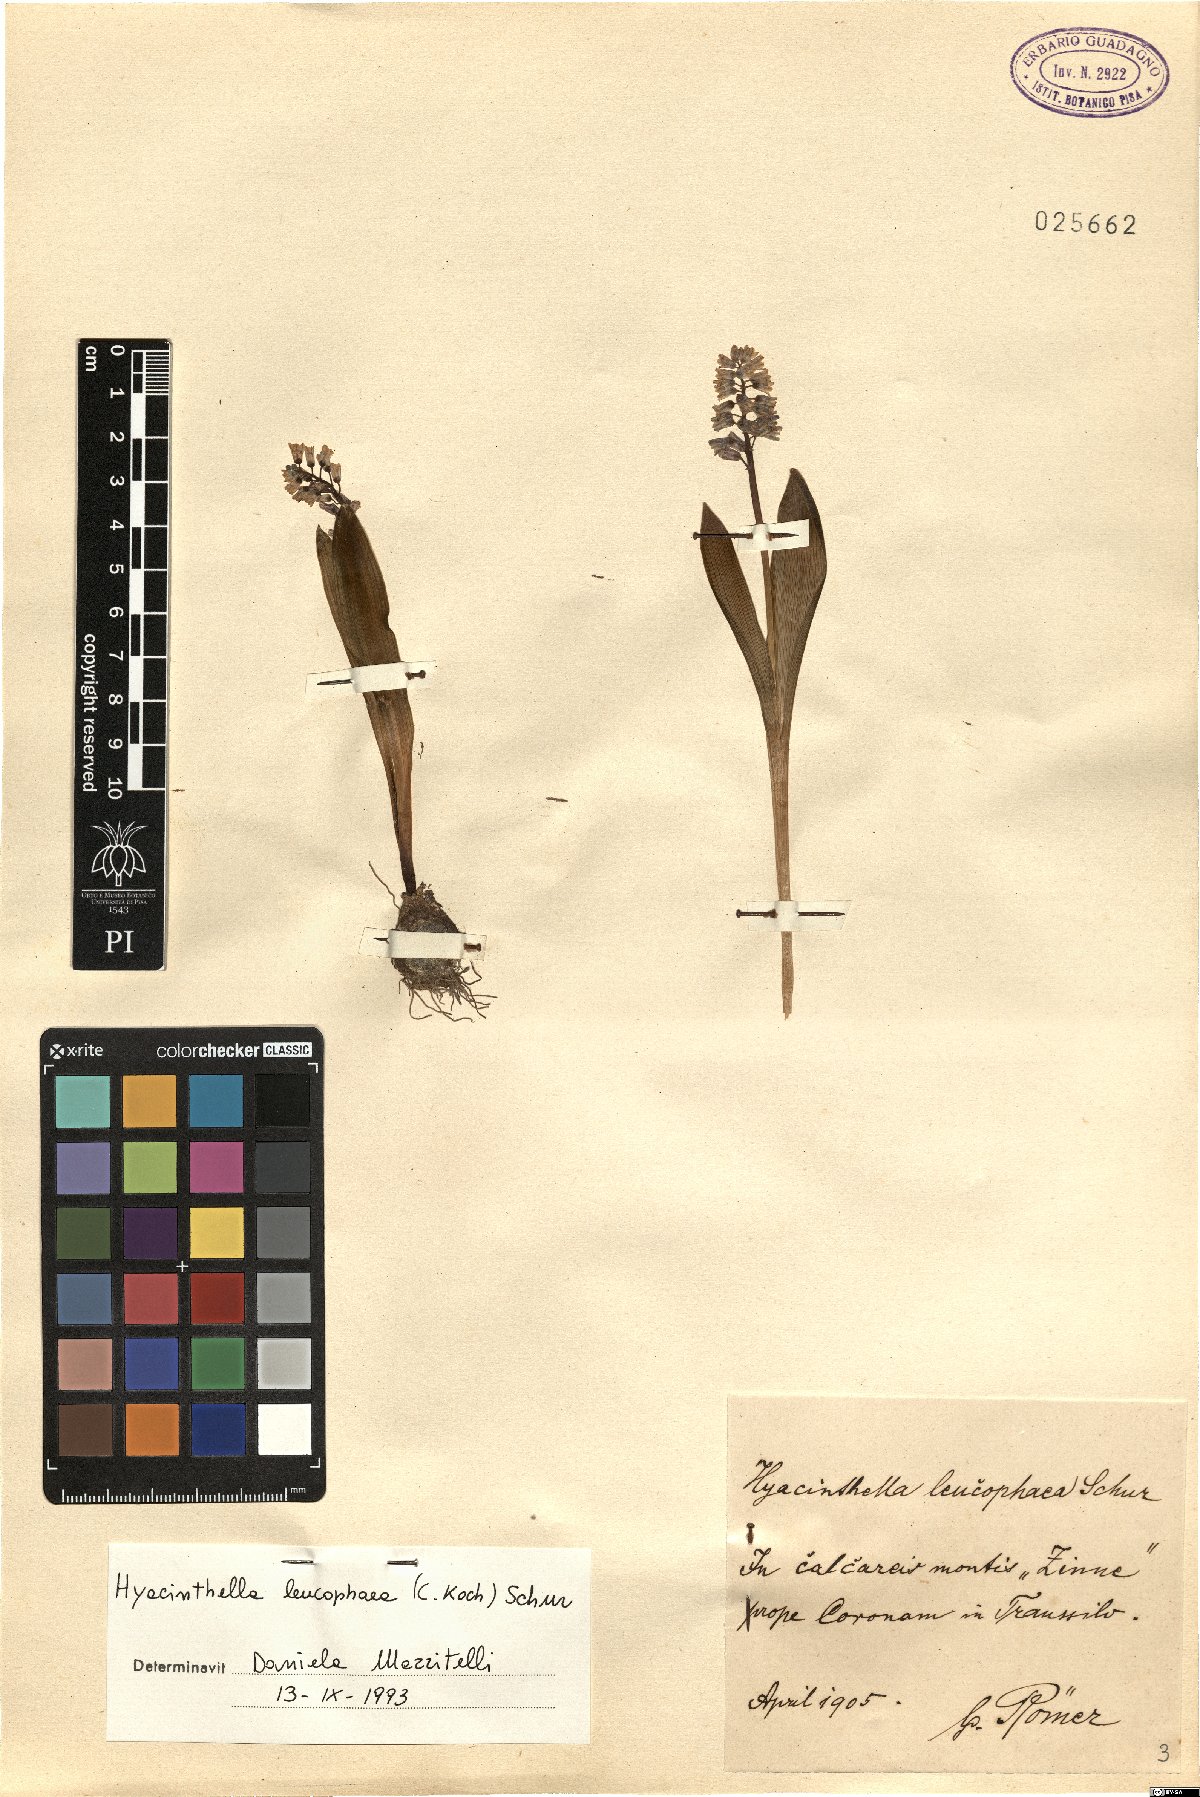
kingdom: Plantae
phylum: Tracheophyta
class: Liliopsida
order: Asparagales
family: Asparagaceae
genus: Hyacinthella
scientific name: Hyacinthella leucophaea
